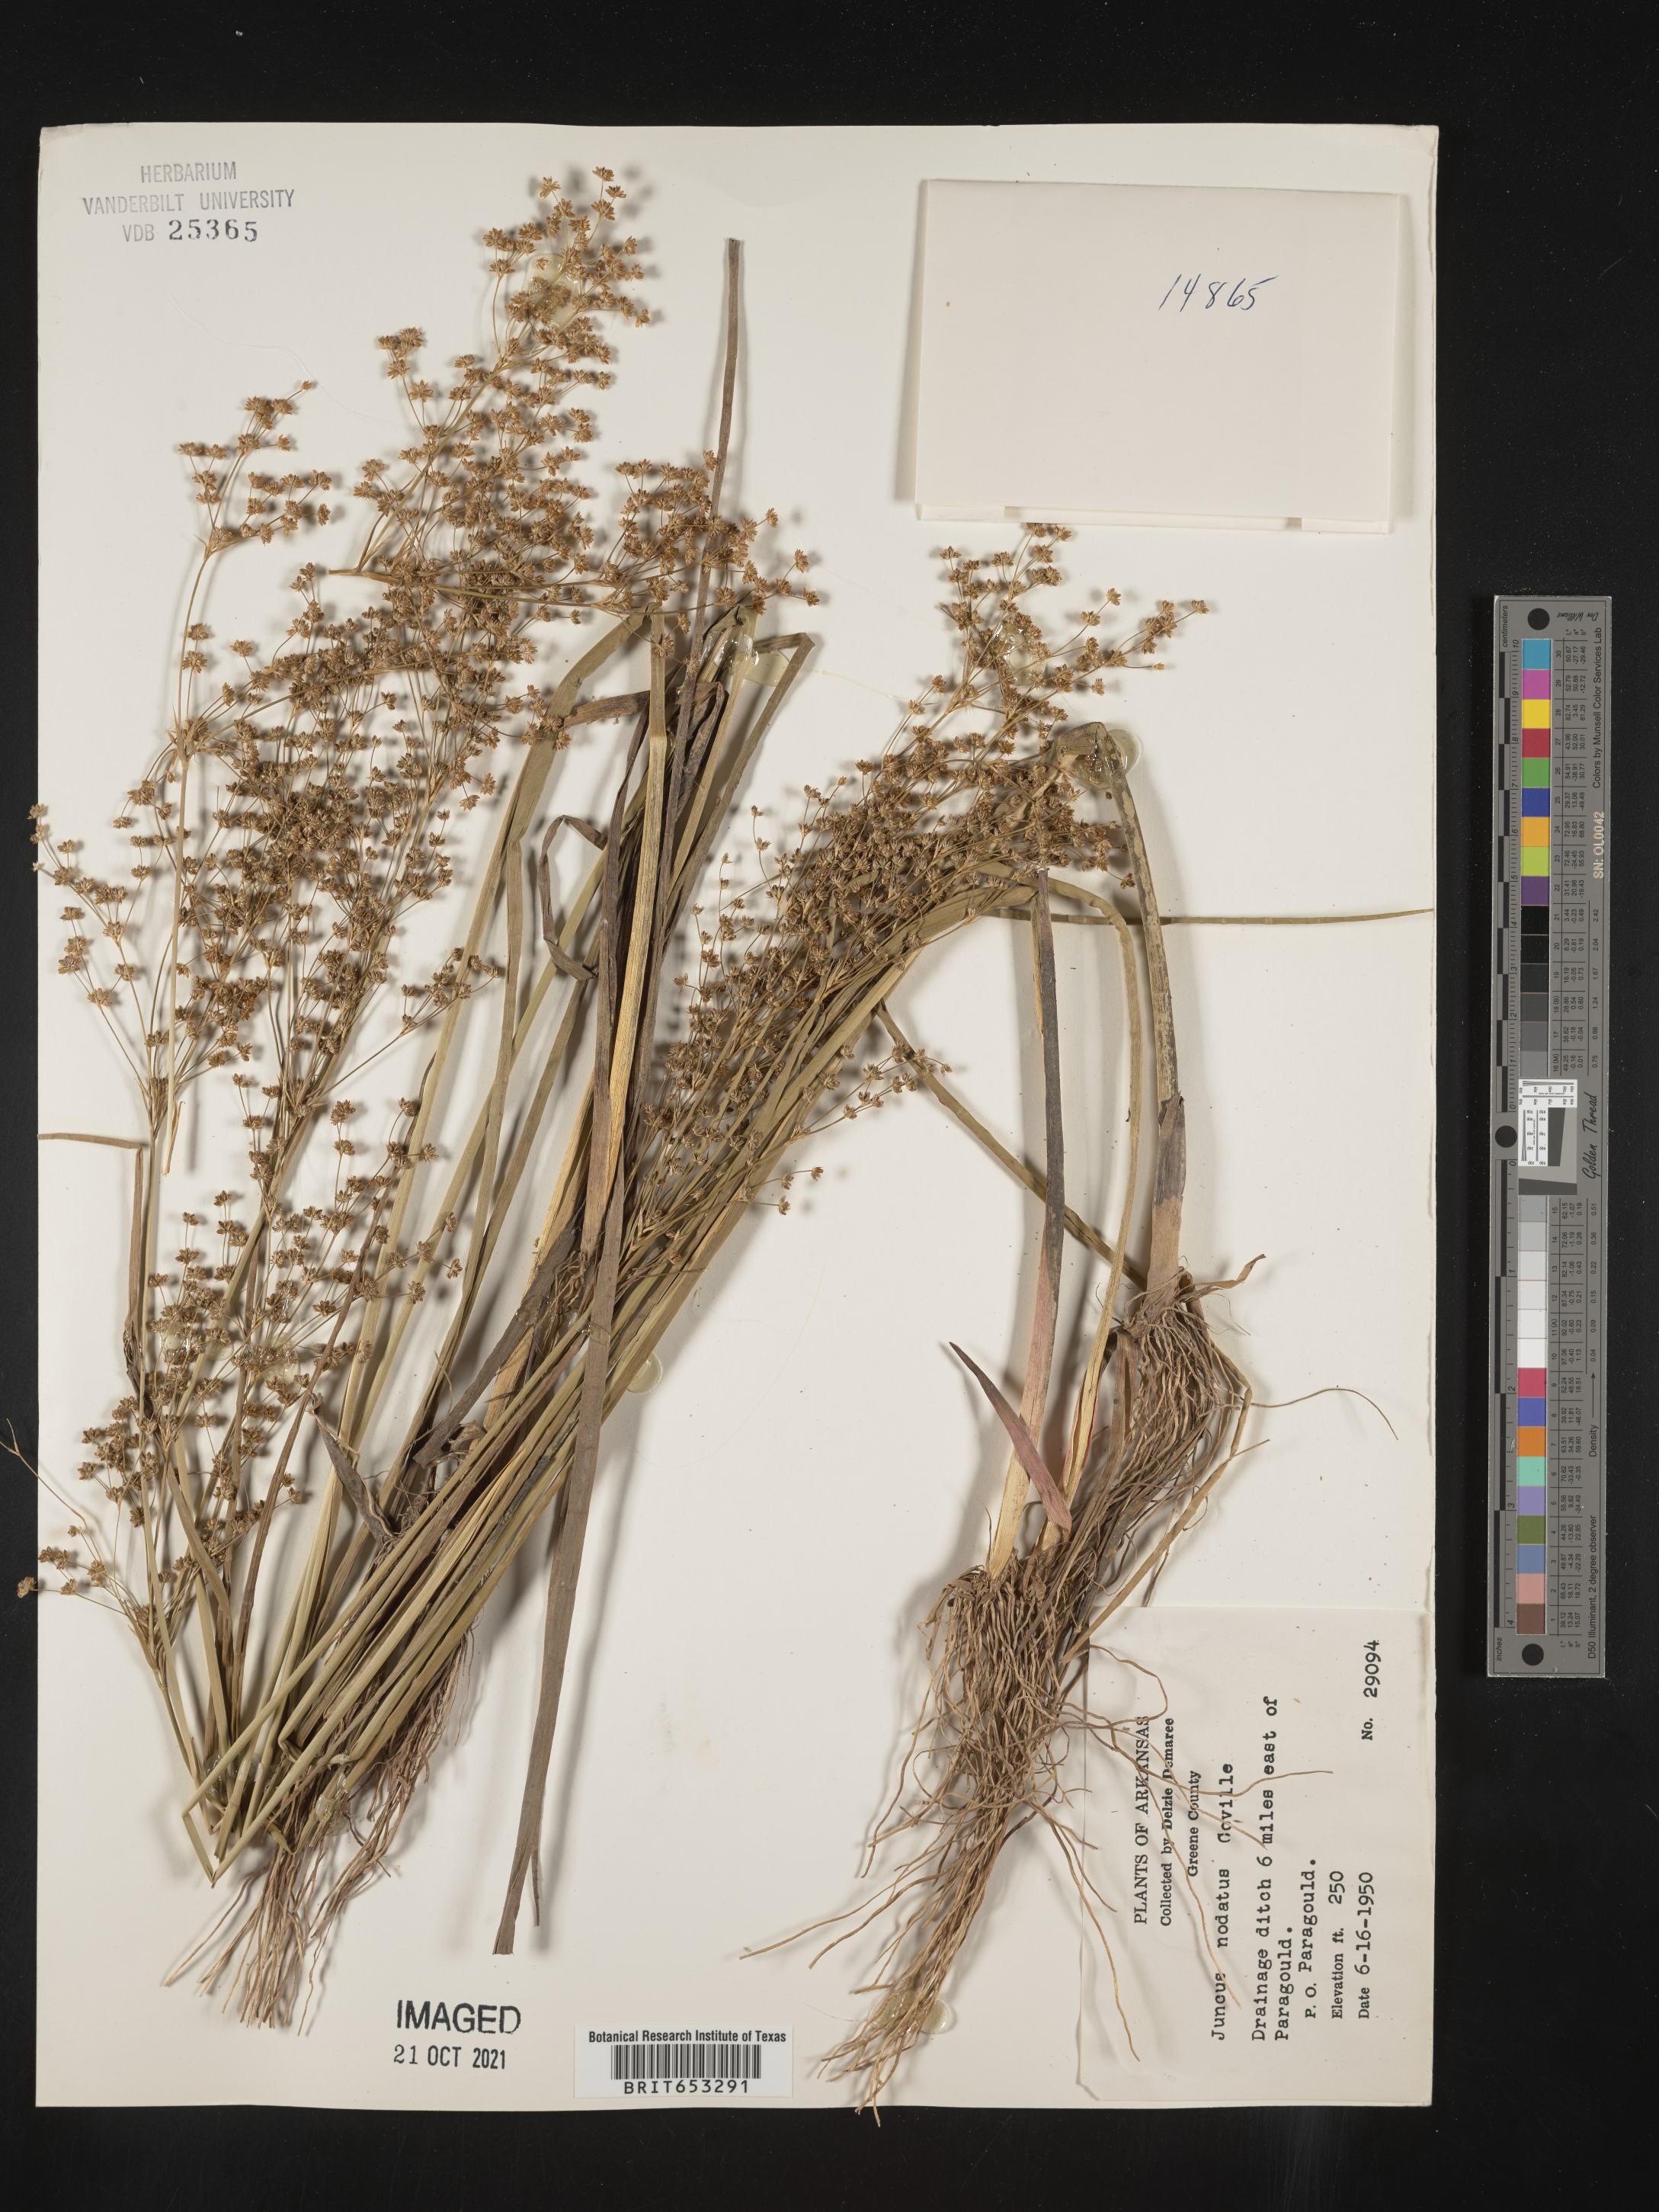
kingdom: Plantae
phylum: Tracheophyta
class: Liliopsida
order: Poales
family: Juncaceae
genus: Juncus
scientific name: Juncus nodatus
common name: Stout rush
